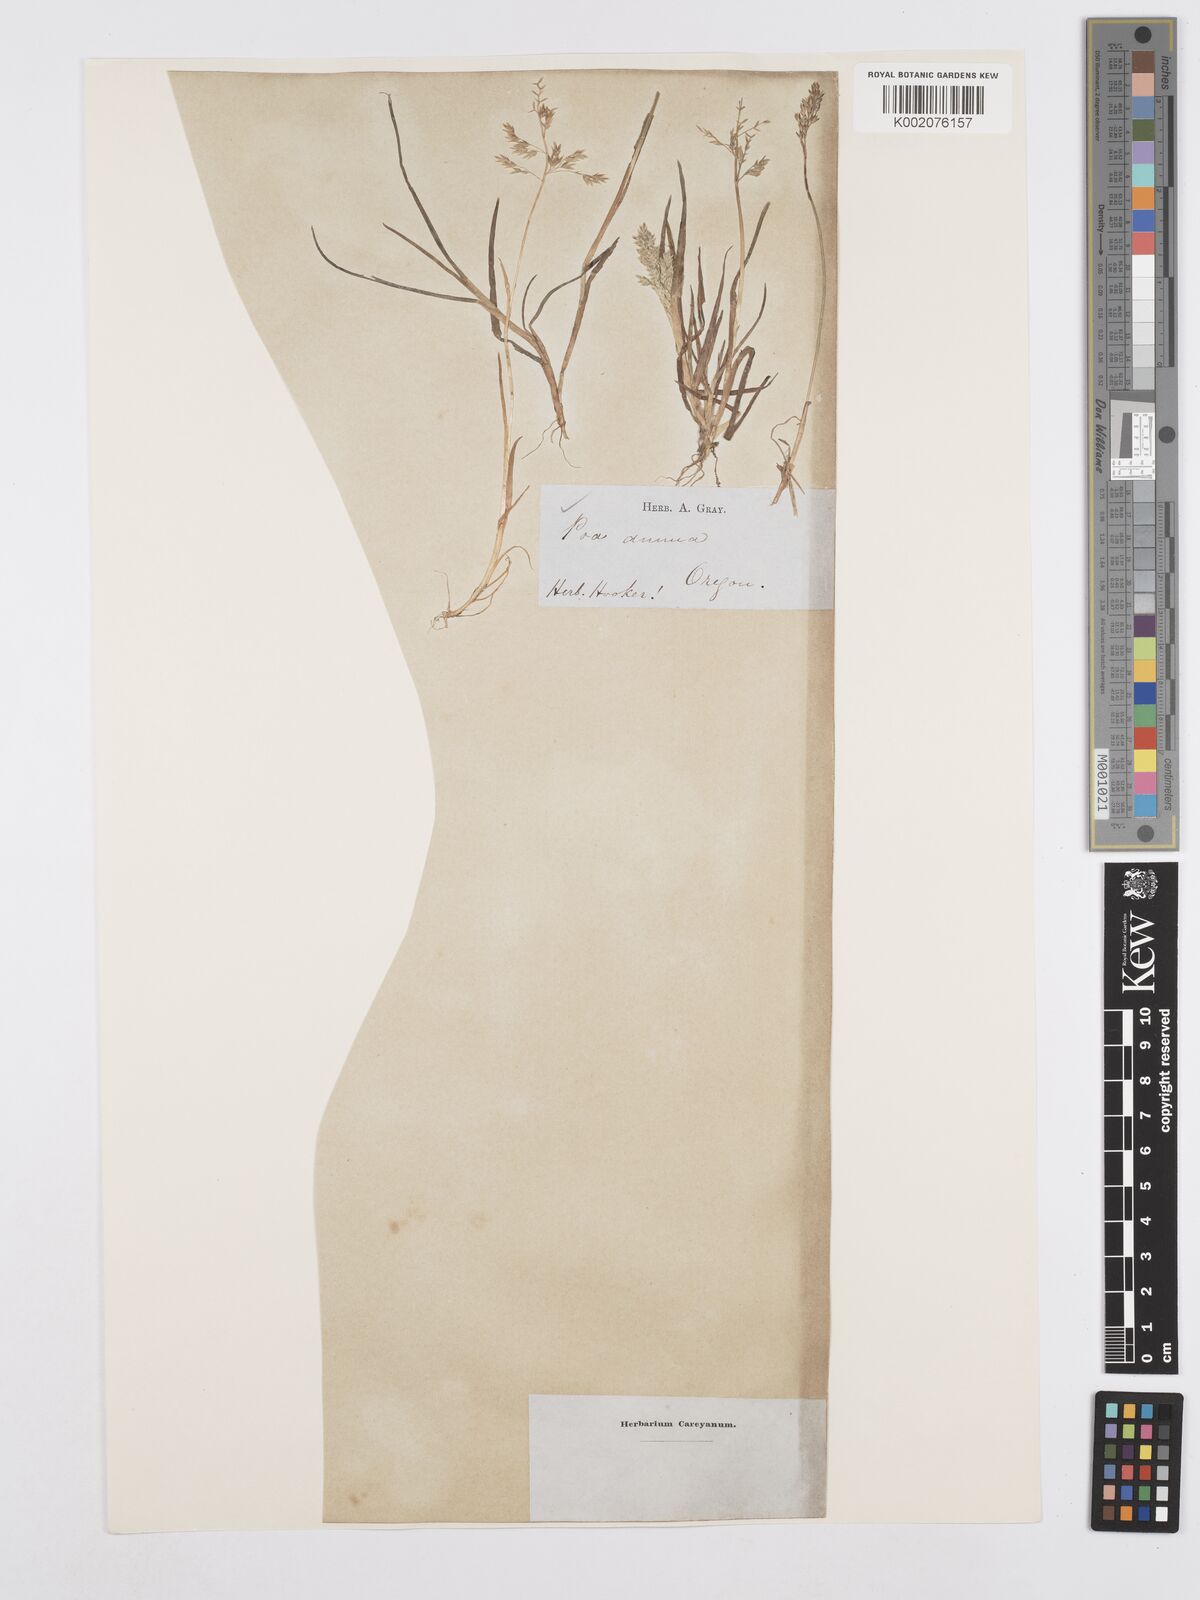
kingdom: Plantae
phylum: Tracheophyta
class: Liliopsida
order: Poales
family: Poaceae
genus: Poa
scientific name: Poa annua
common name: Annual bluegrass
